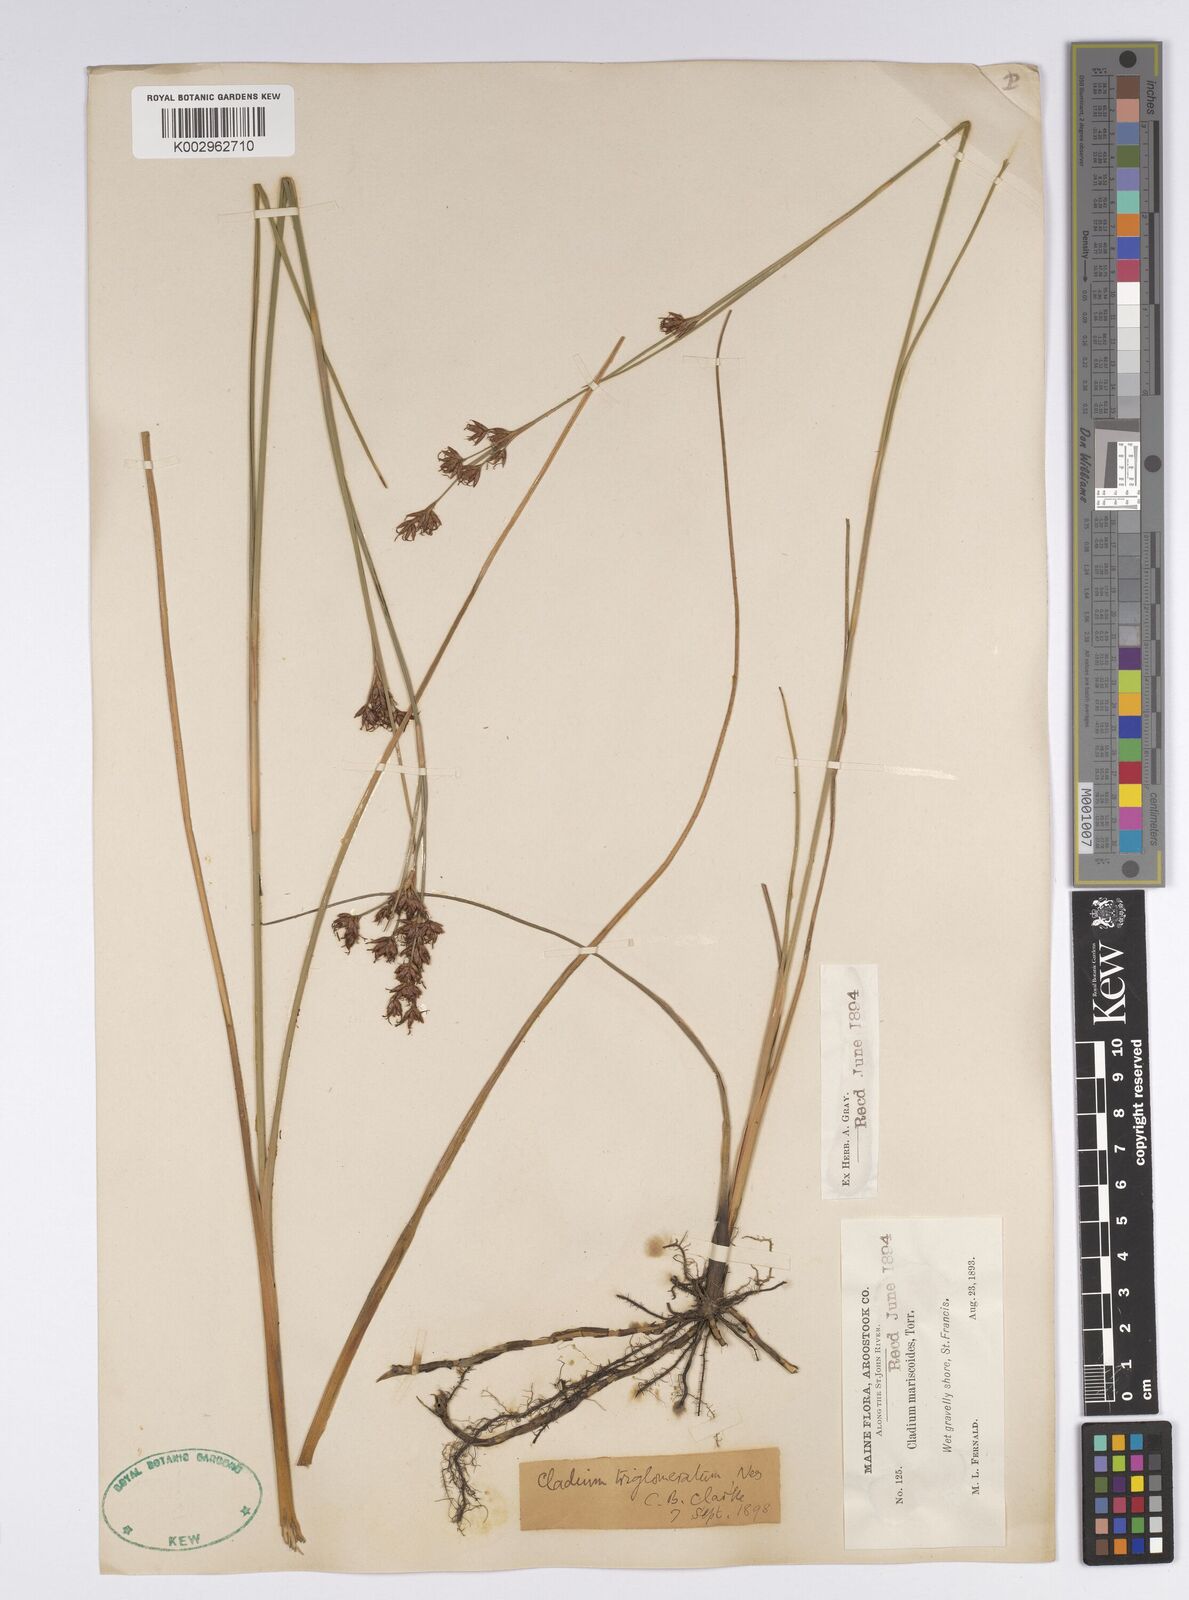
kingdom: Plantae
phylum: Tracheophyta
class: Liliopsida
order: Poales
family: Cyperaceae
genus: Cladium
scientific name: Cladium mariscoides
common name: Smooth sawgrass
